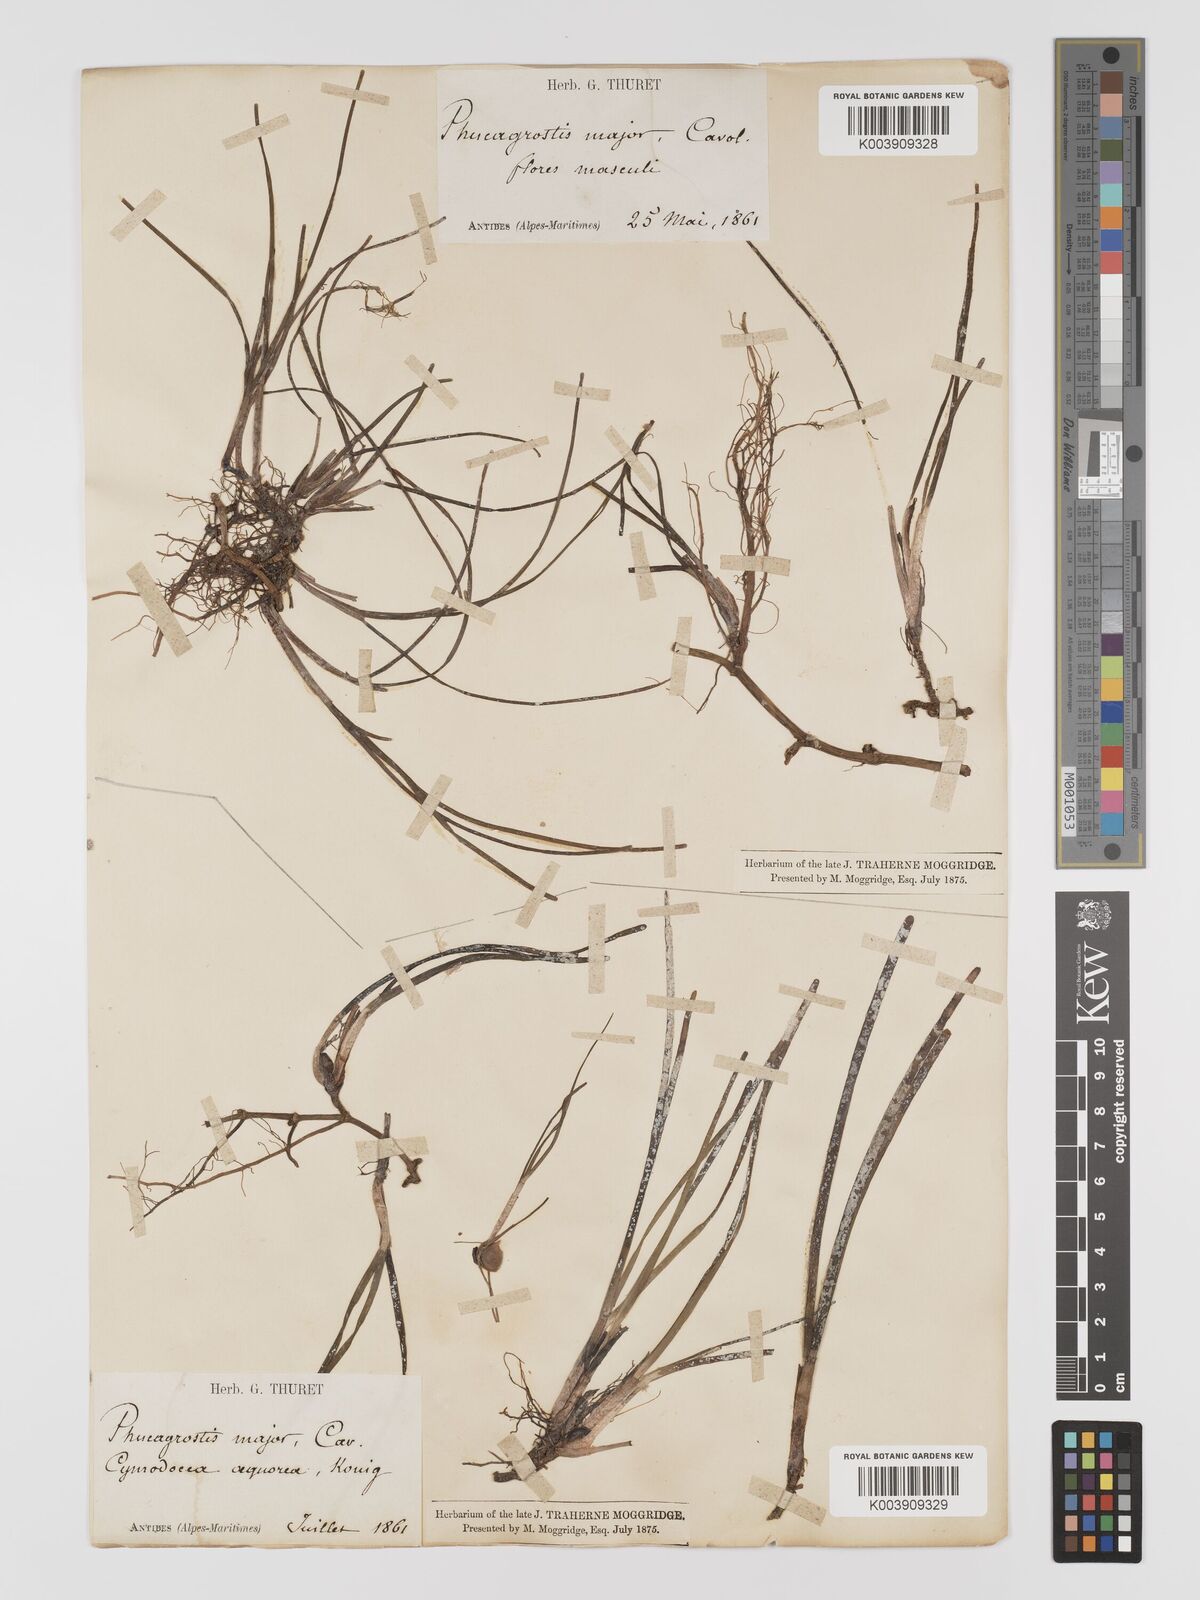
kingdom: Plantae
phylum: Tracheophyta
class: Liliopsida
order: Alismatales
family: Cymodoceaceae
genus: Cymodocea
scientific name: Cymodocea nodosa
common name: Slender seagrass
